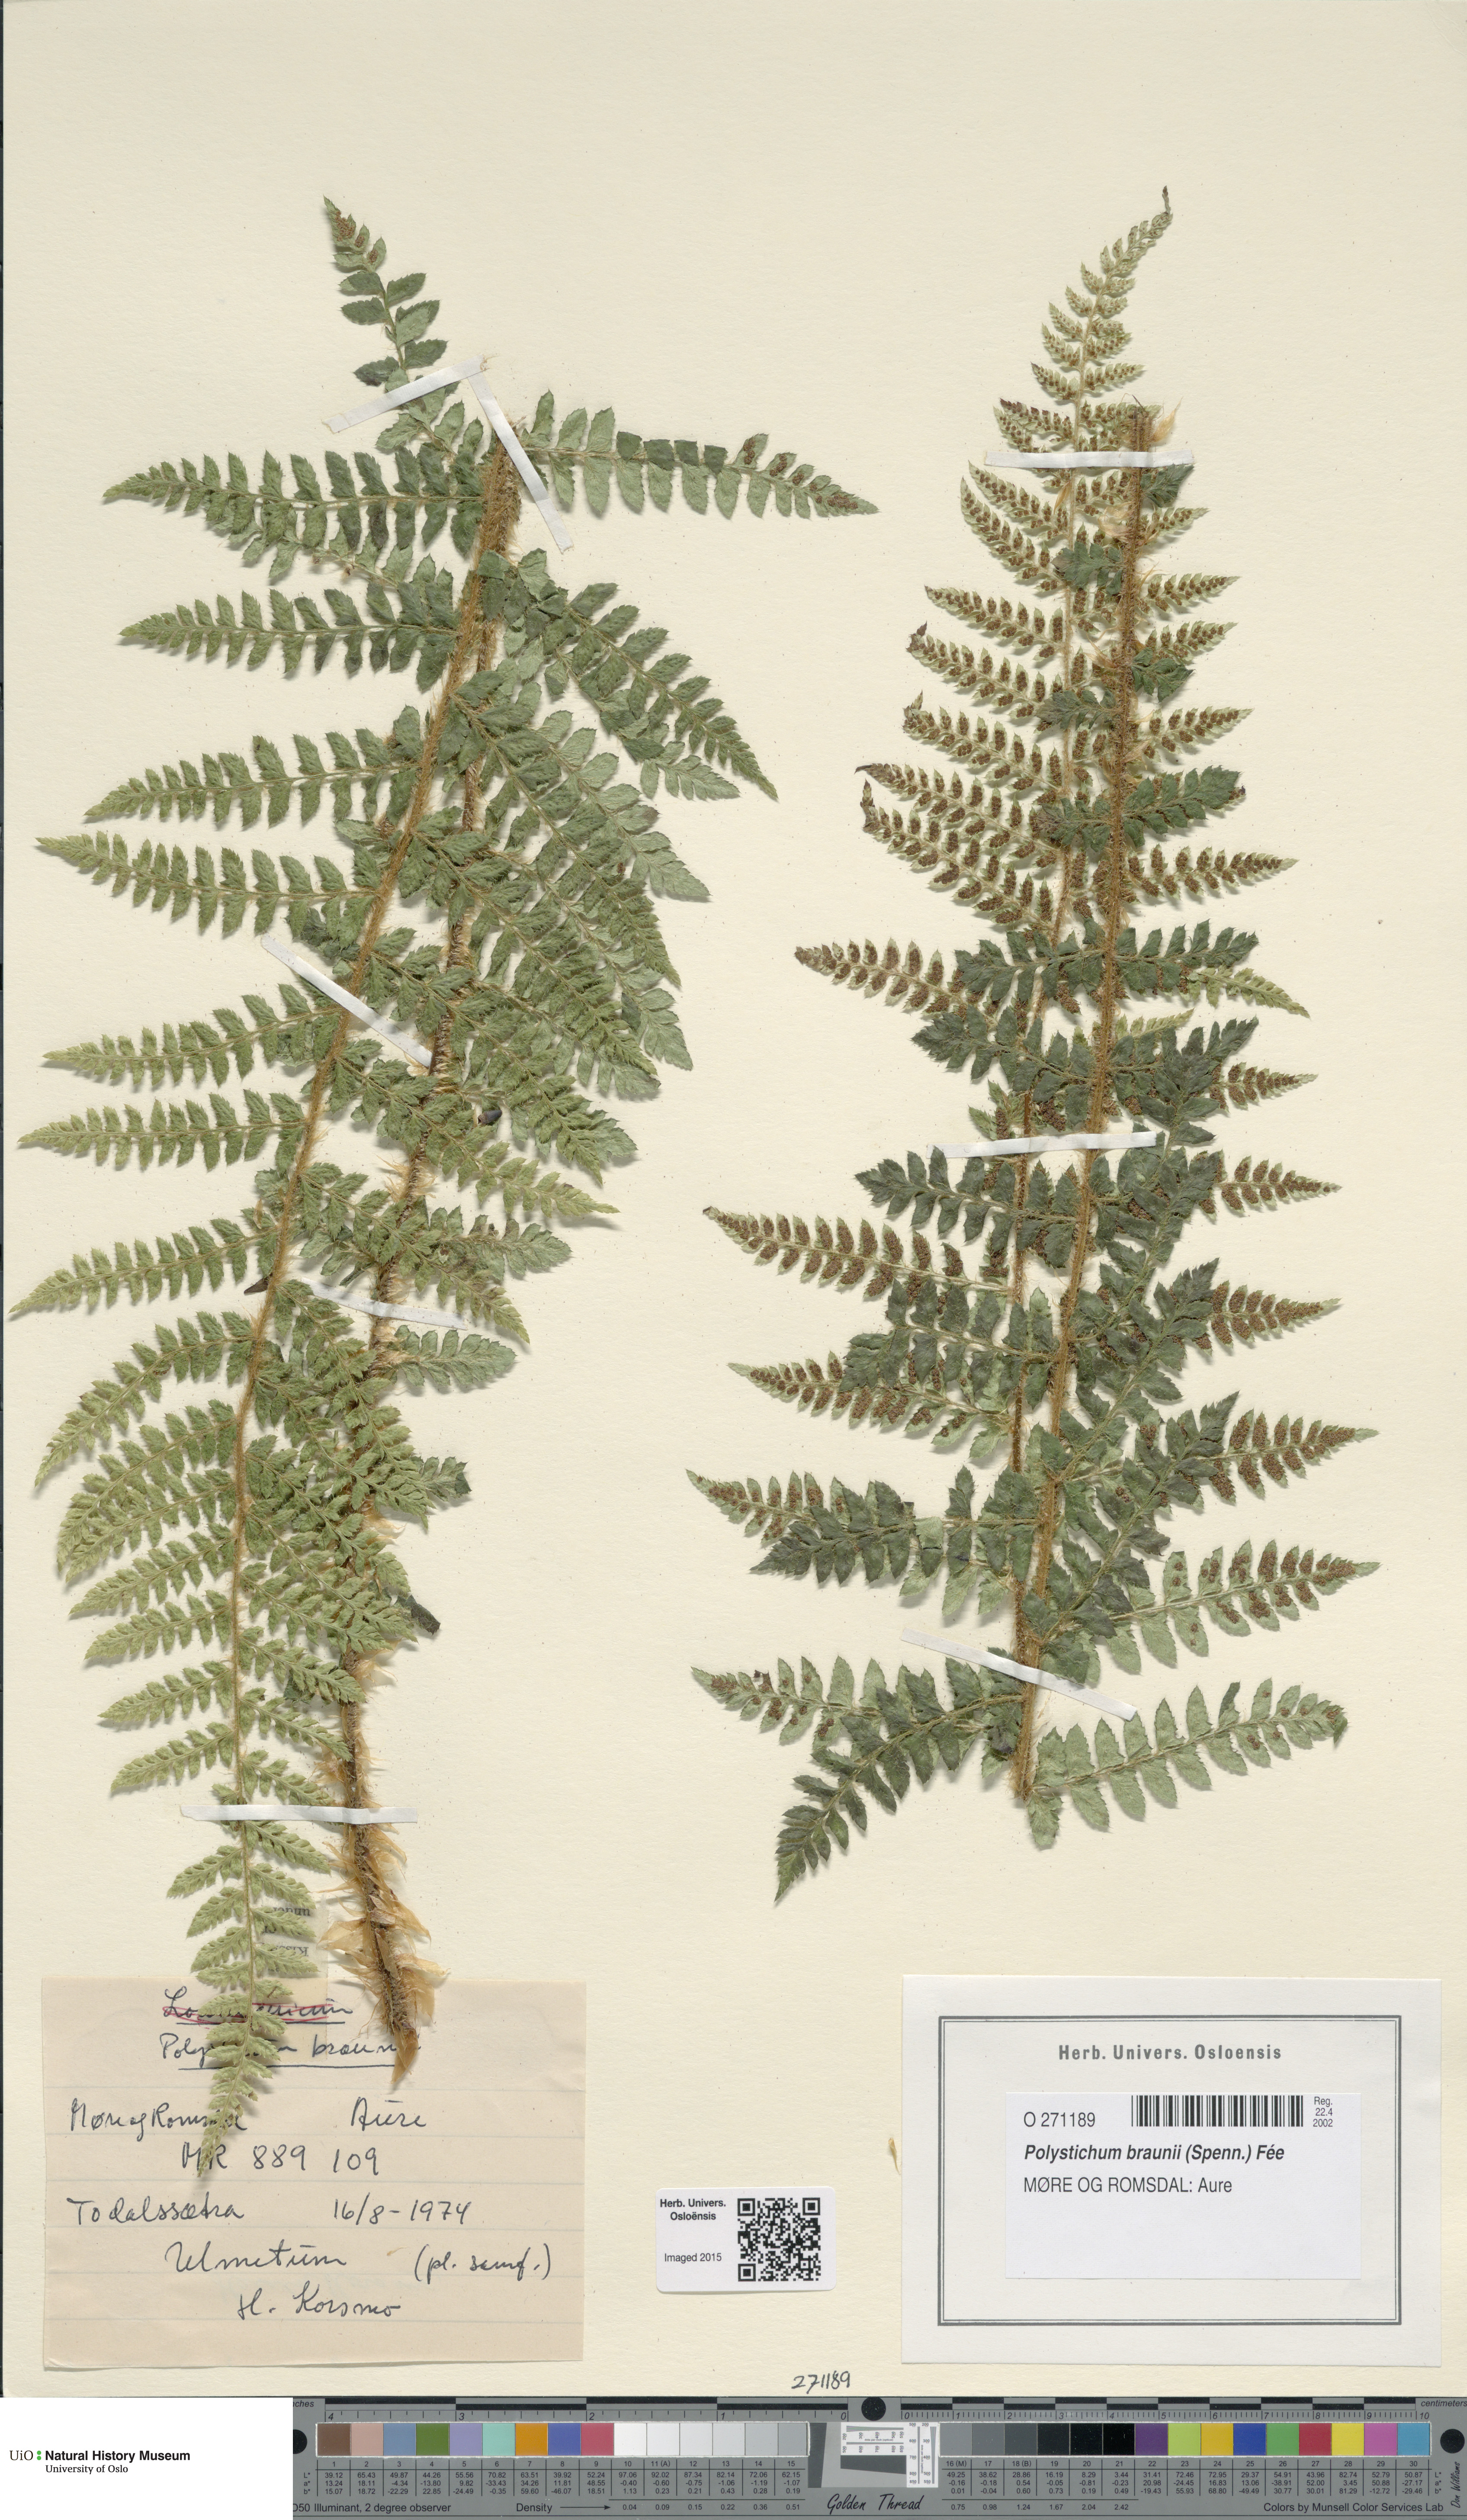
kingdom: Plantae
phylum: Tracheophyta
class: Polypodiopsida
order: Polypodiales
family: Dryopteridaceae
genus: Polystichum
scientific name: Polystichum braunii
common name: Braun's holly fern
